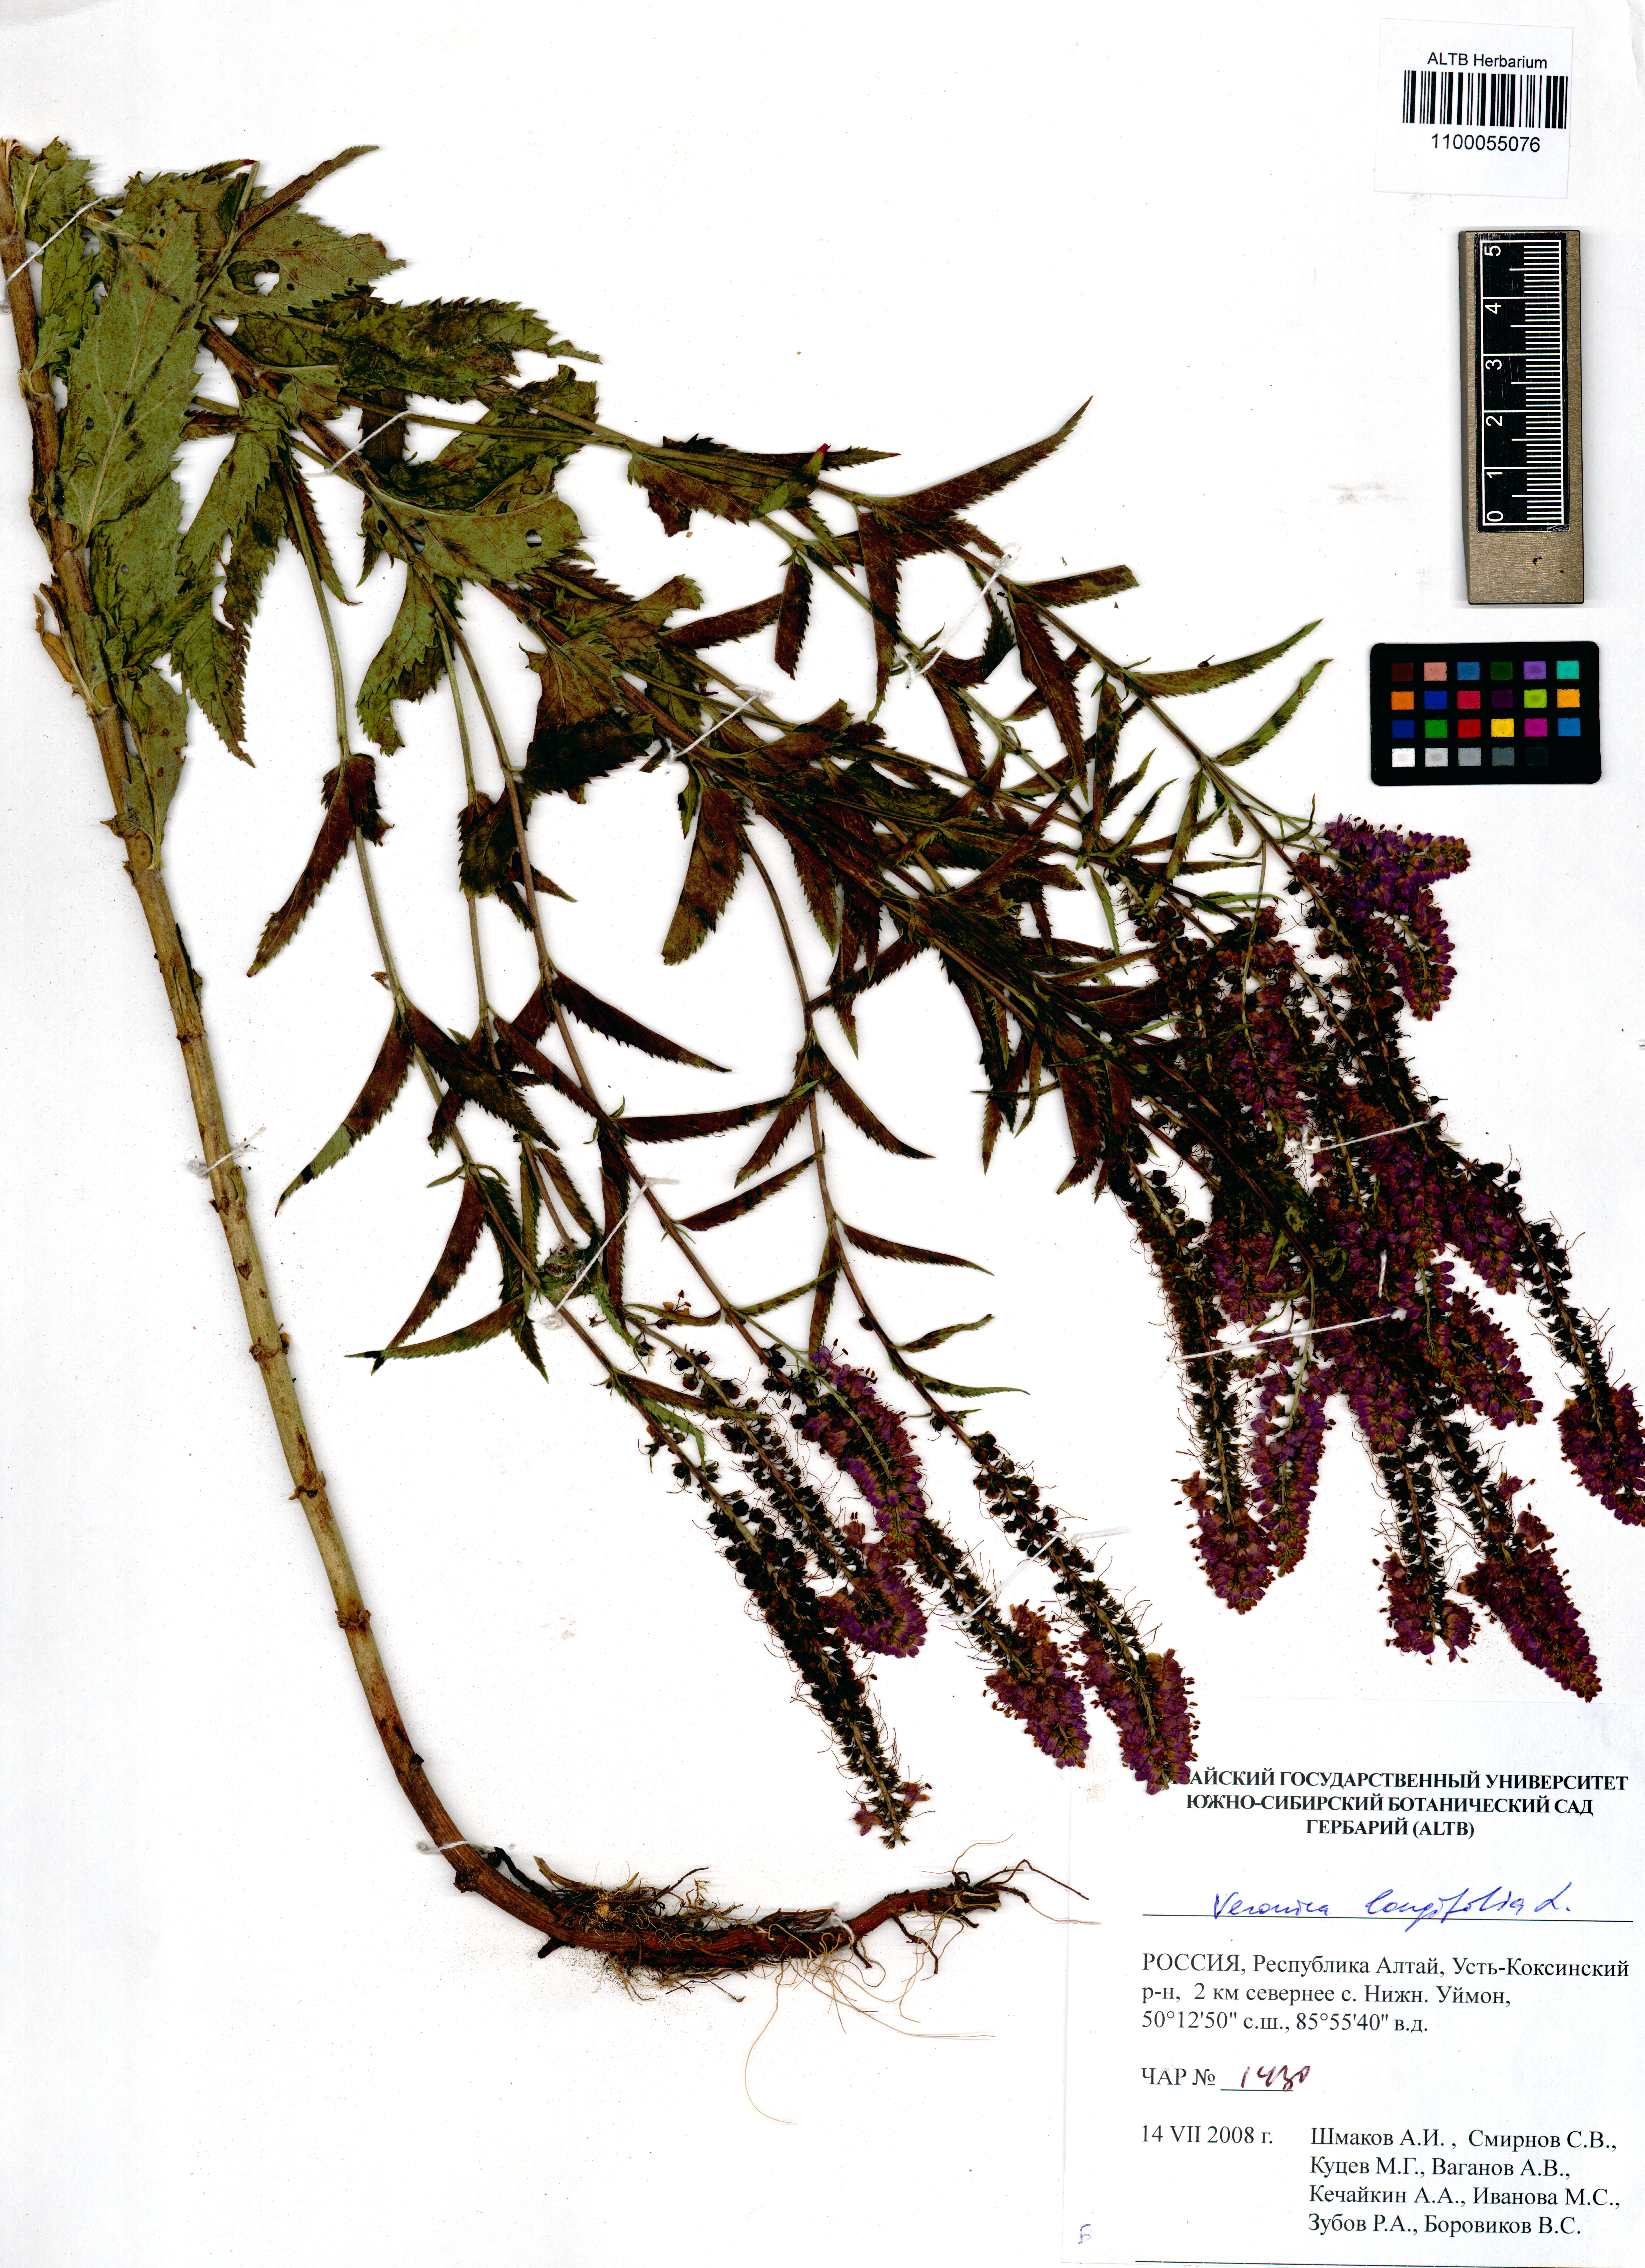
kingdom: Plantae
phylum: Tracheophyta
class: Magnoliopsida
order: Lamiales
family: Plantaginaceae
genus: Veronica
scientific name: Veronica longifolia
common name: Garden speedwell
